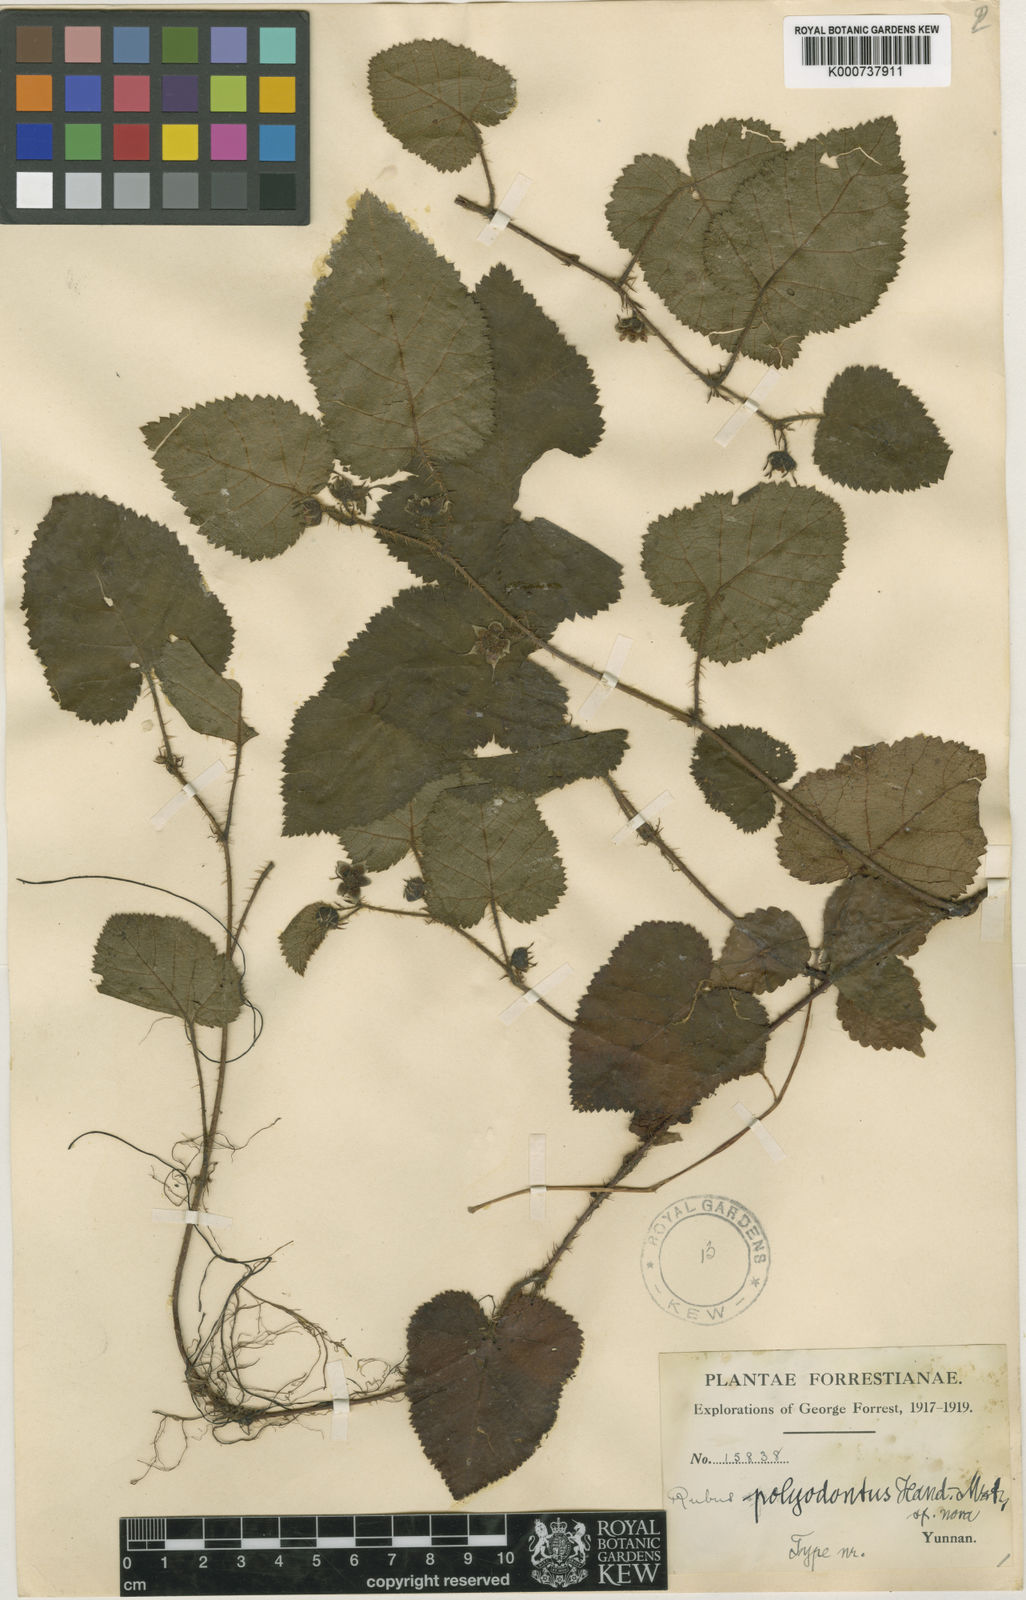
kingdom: Plantae
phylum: Tracheophyta
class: Magnoliopsida
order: Rosales
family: Rosaceae
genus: Rubus
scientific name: Rubus polyodontus
